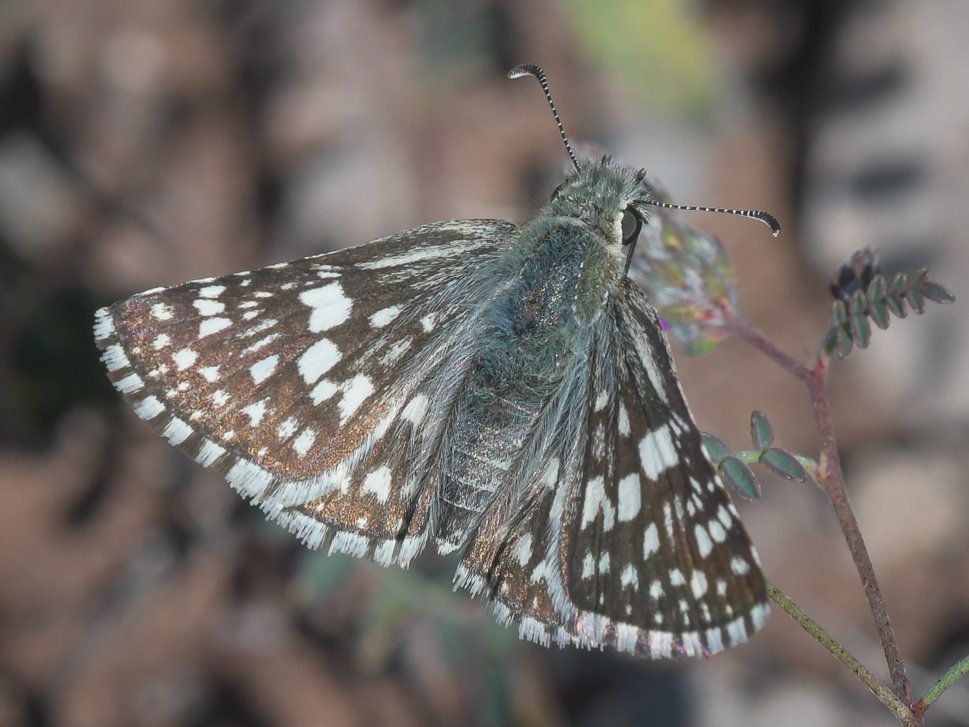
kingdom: Animalia
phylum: Arthropoda
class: Insecta
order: Lepidoptera
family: Hesperiidae
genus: Pyrgus
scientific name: Pyrgus communis
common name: White Checkered-Skipper
